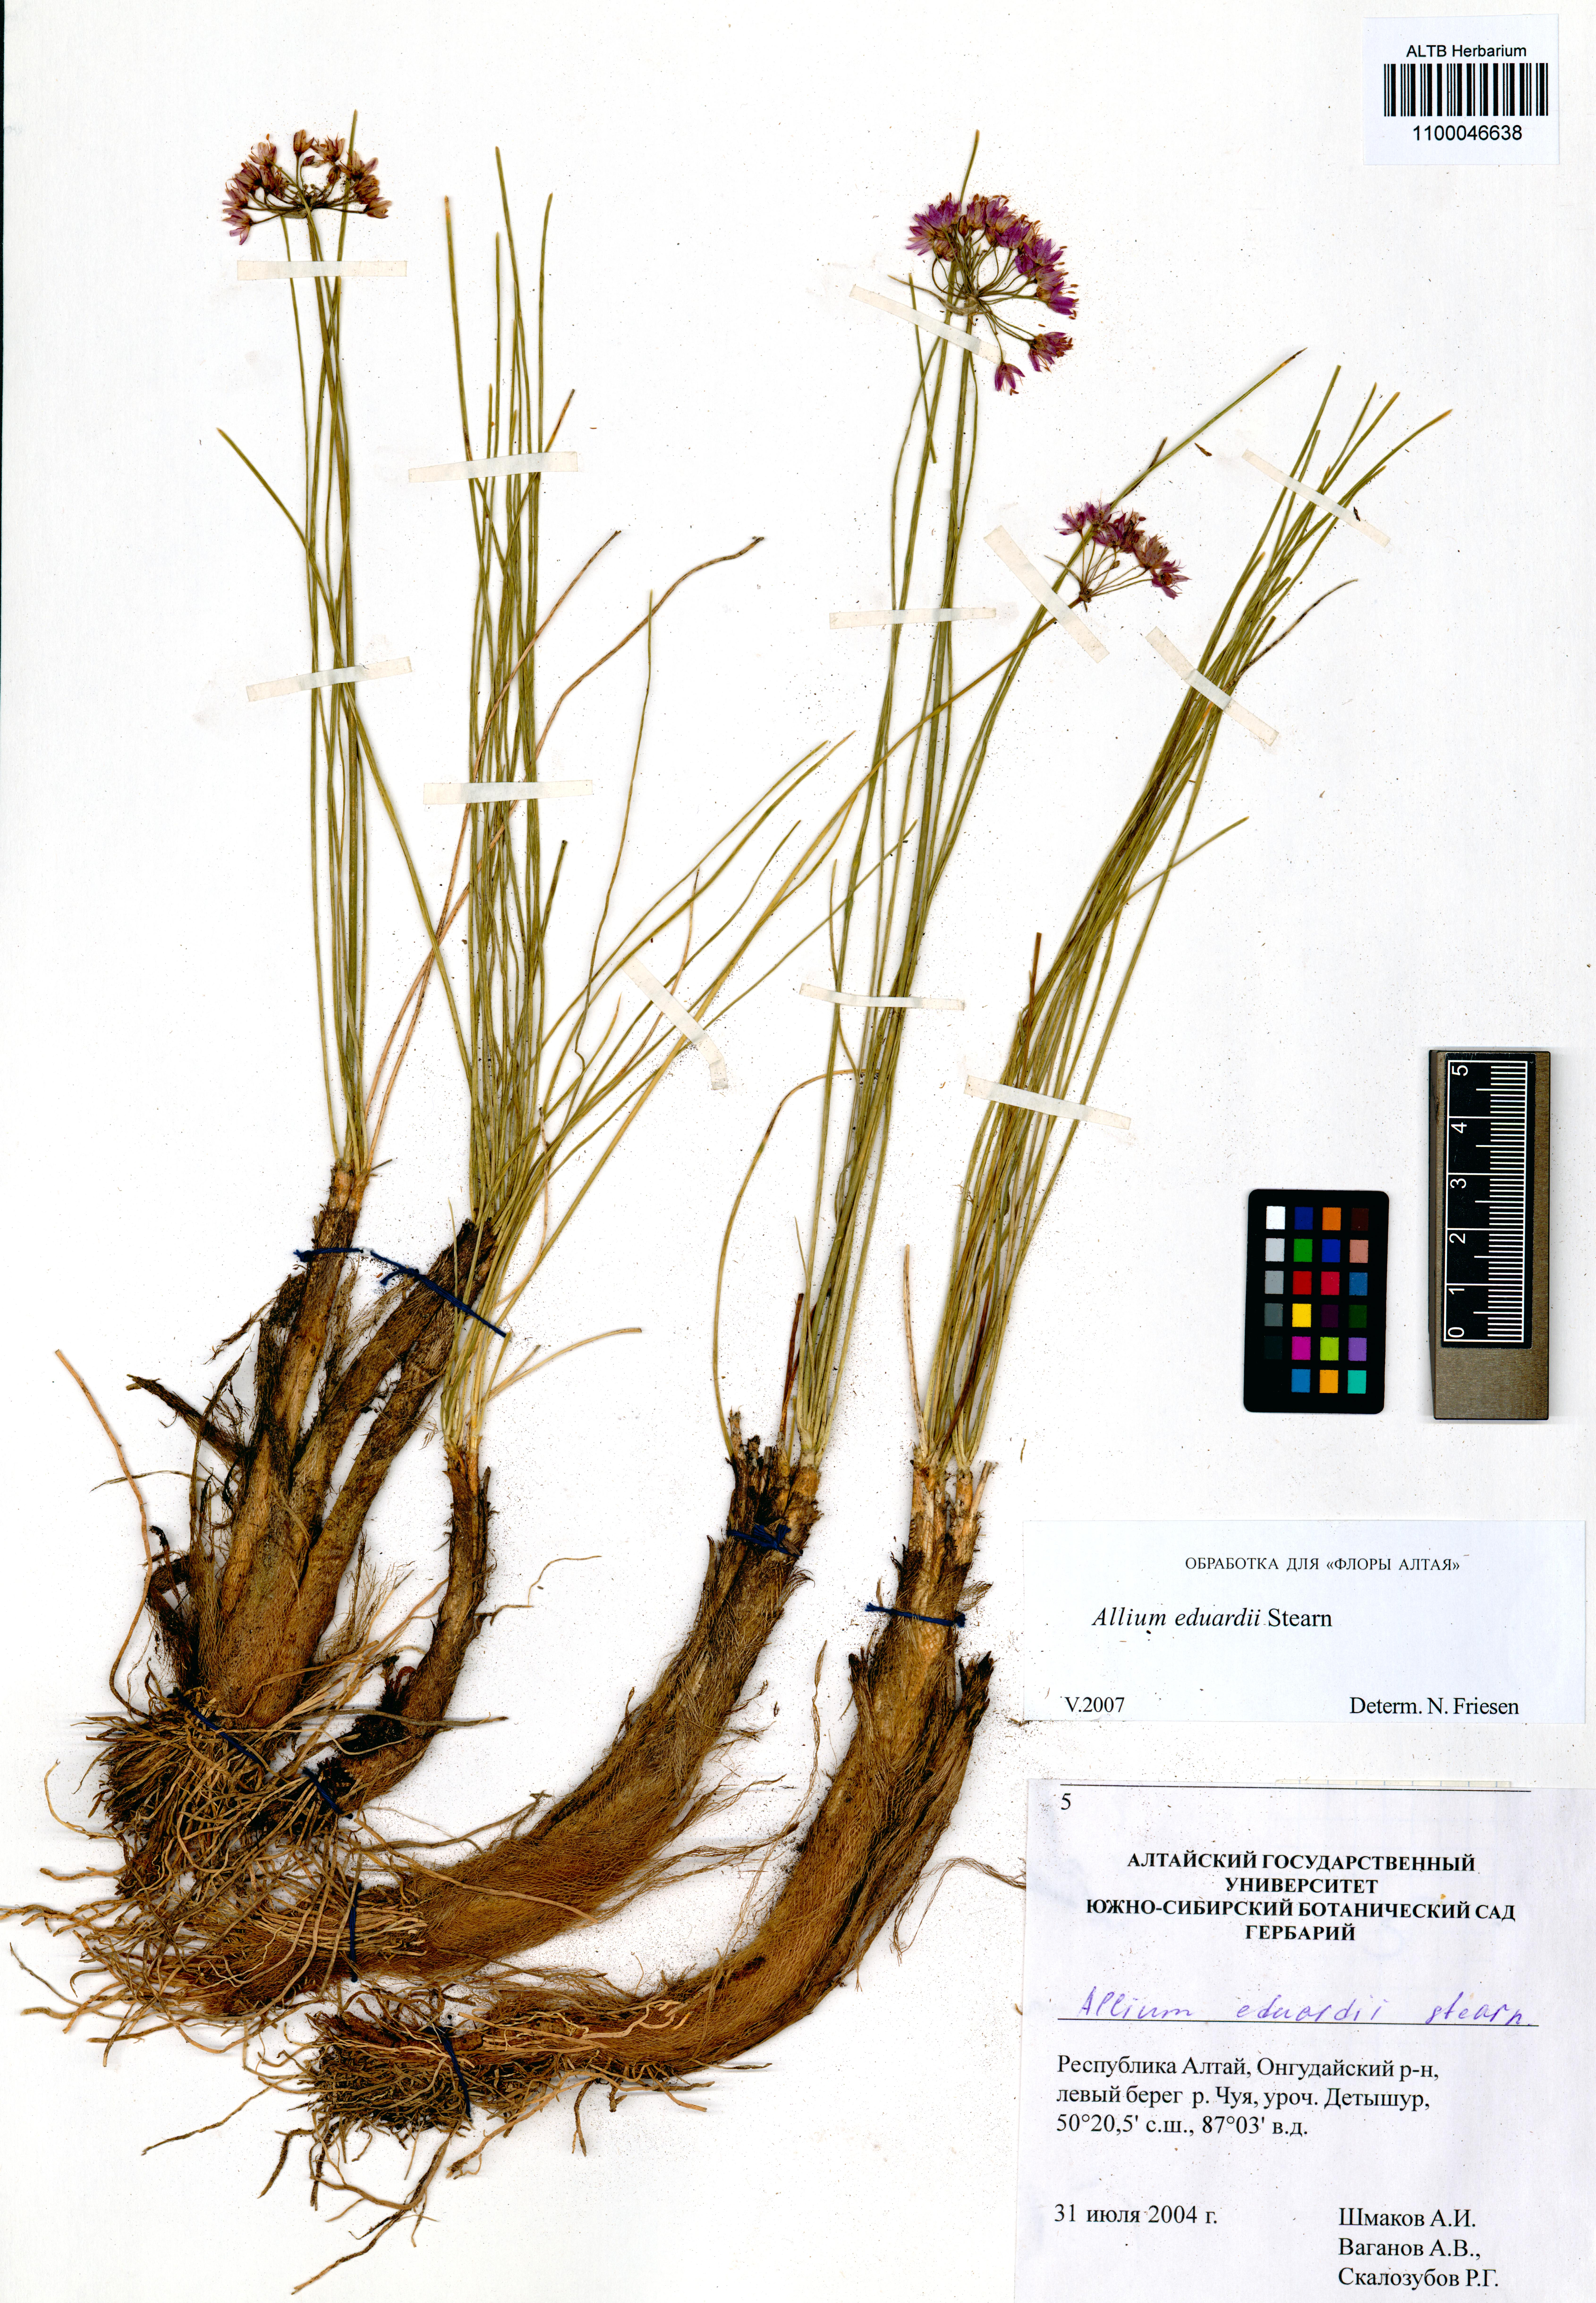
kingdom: Plantae
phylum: Tracheophyta
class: Liliopsida
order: Asparagales
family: Amaryllidaceae
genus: Allium
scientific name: Allium eduardi
